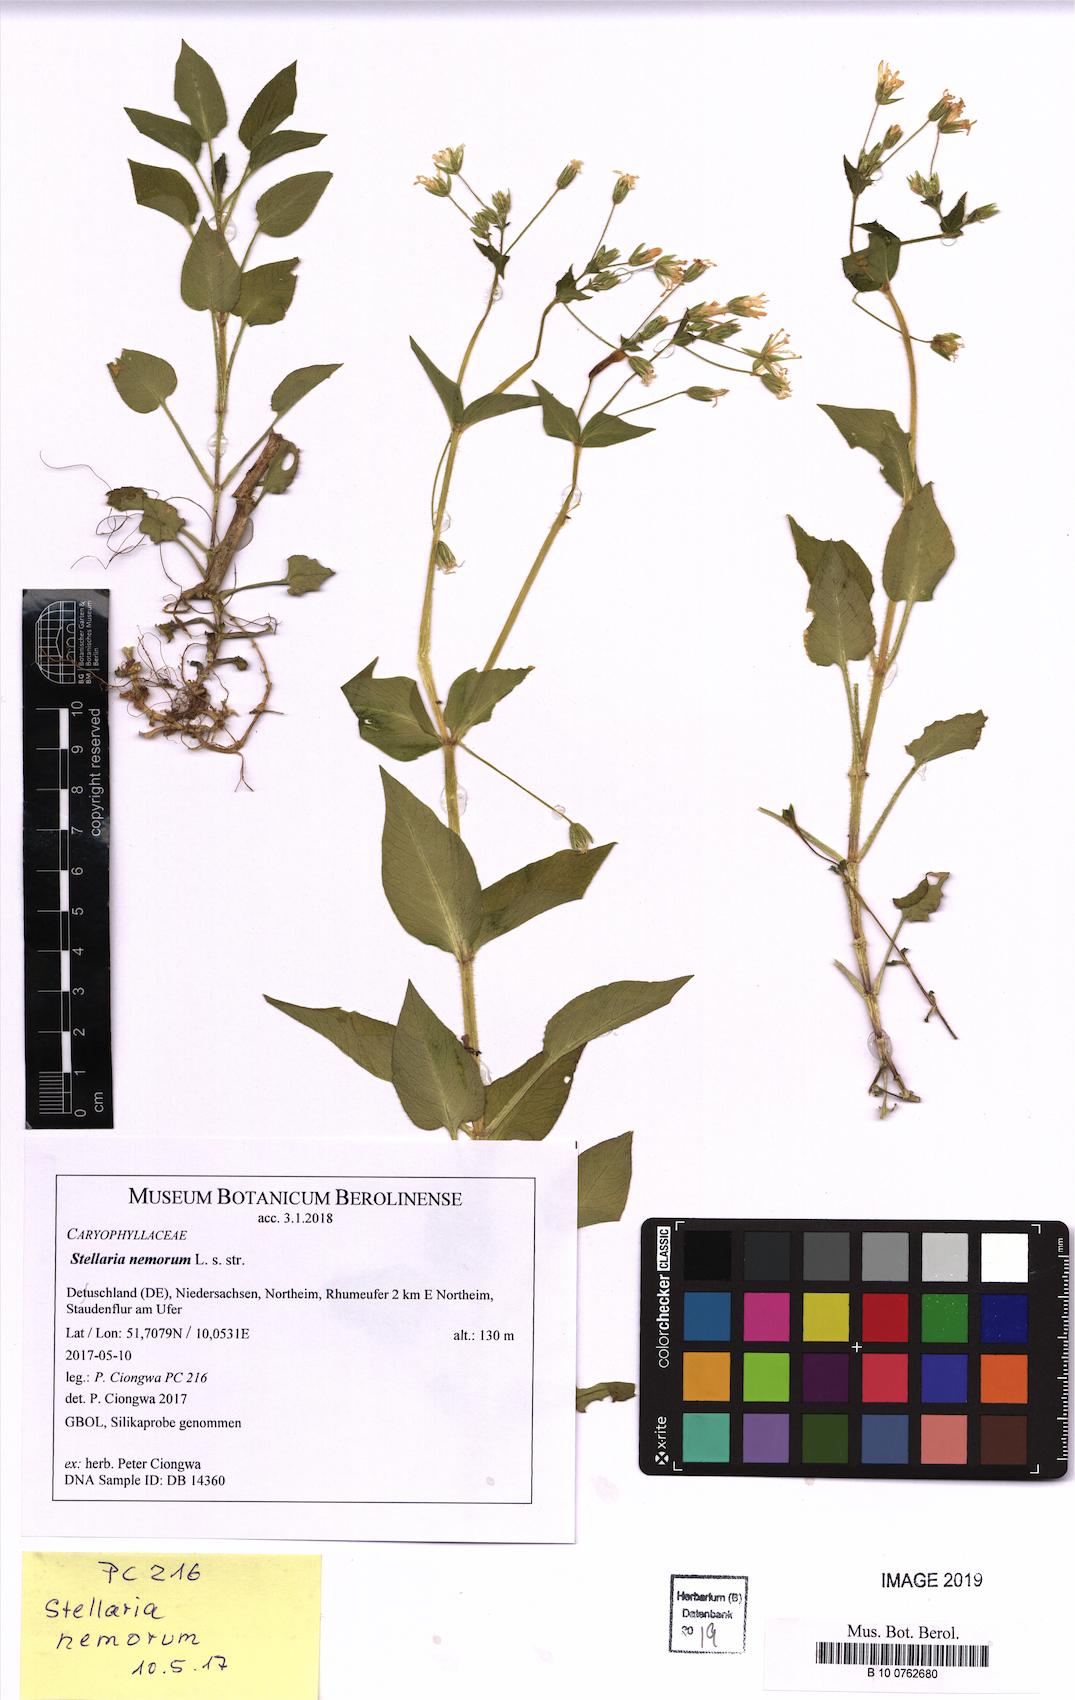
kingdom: Plantae
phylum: Tracheophyta
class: Magnoliopsida
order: Caryophyllales
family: Caryophyllaceae
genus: Stellaria
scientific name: Stellaria nemorum
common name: Wood stitchwort
